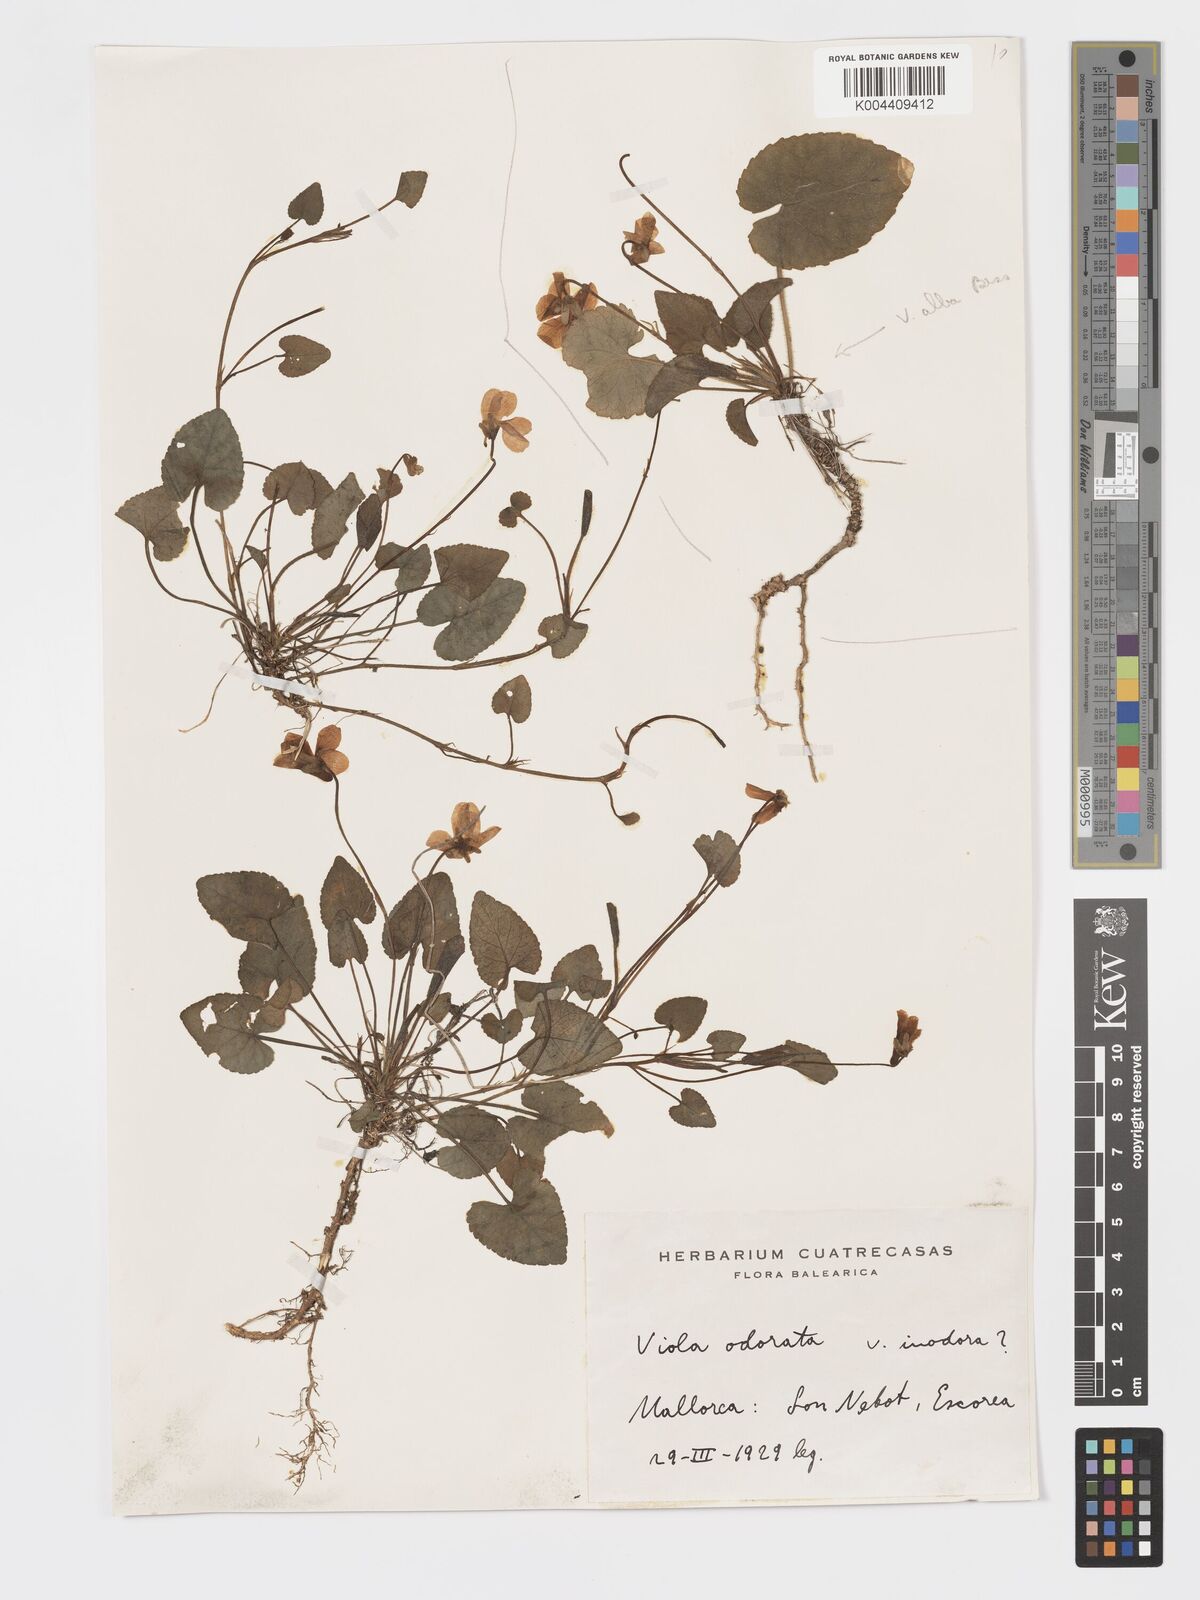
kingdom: Plantae
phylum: Tracheophyta
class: Magnoliopsida
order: Malpighiales
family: Violaceae
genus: Viola
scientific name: Viola alba
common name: White violet
